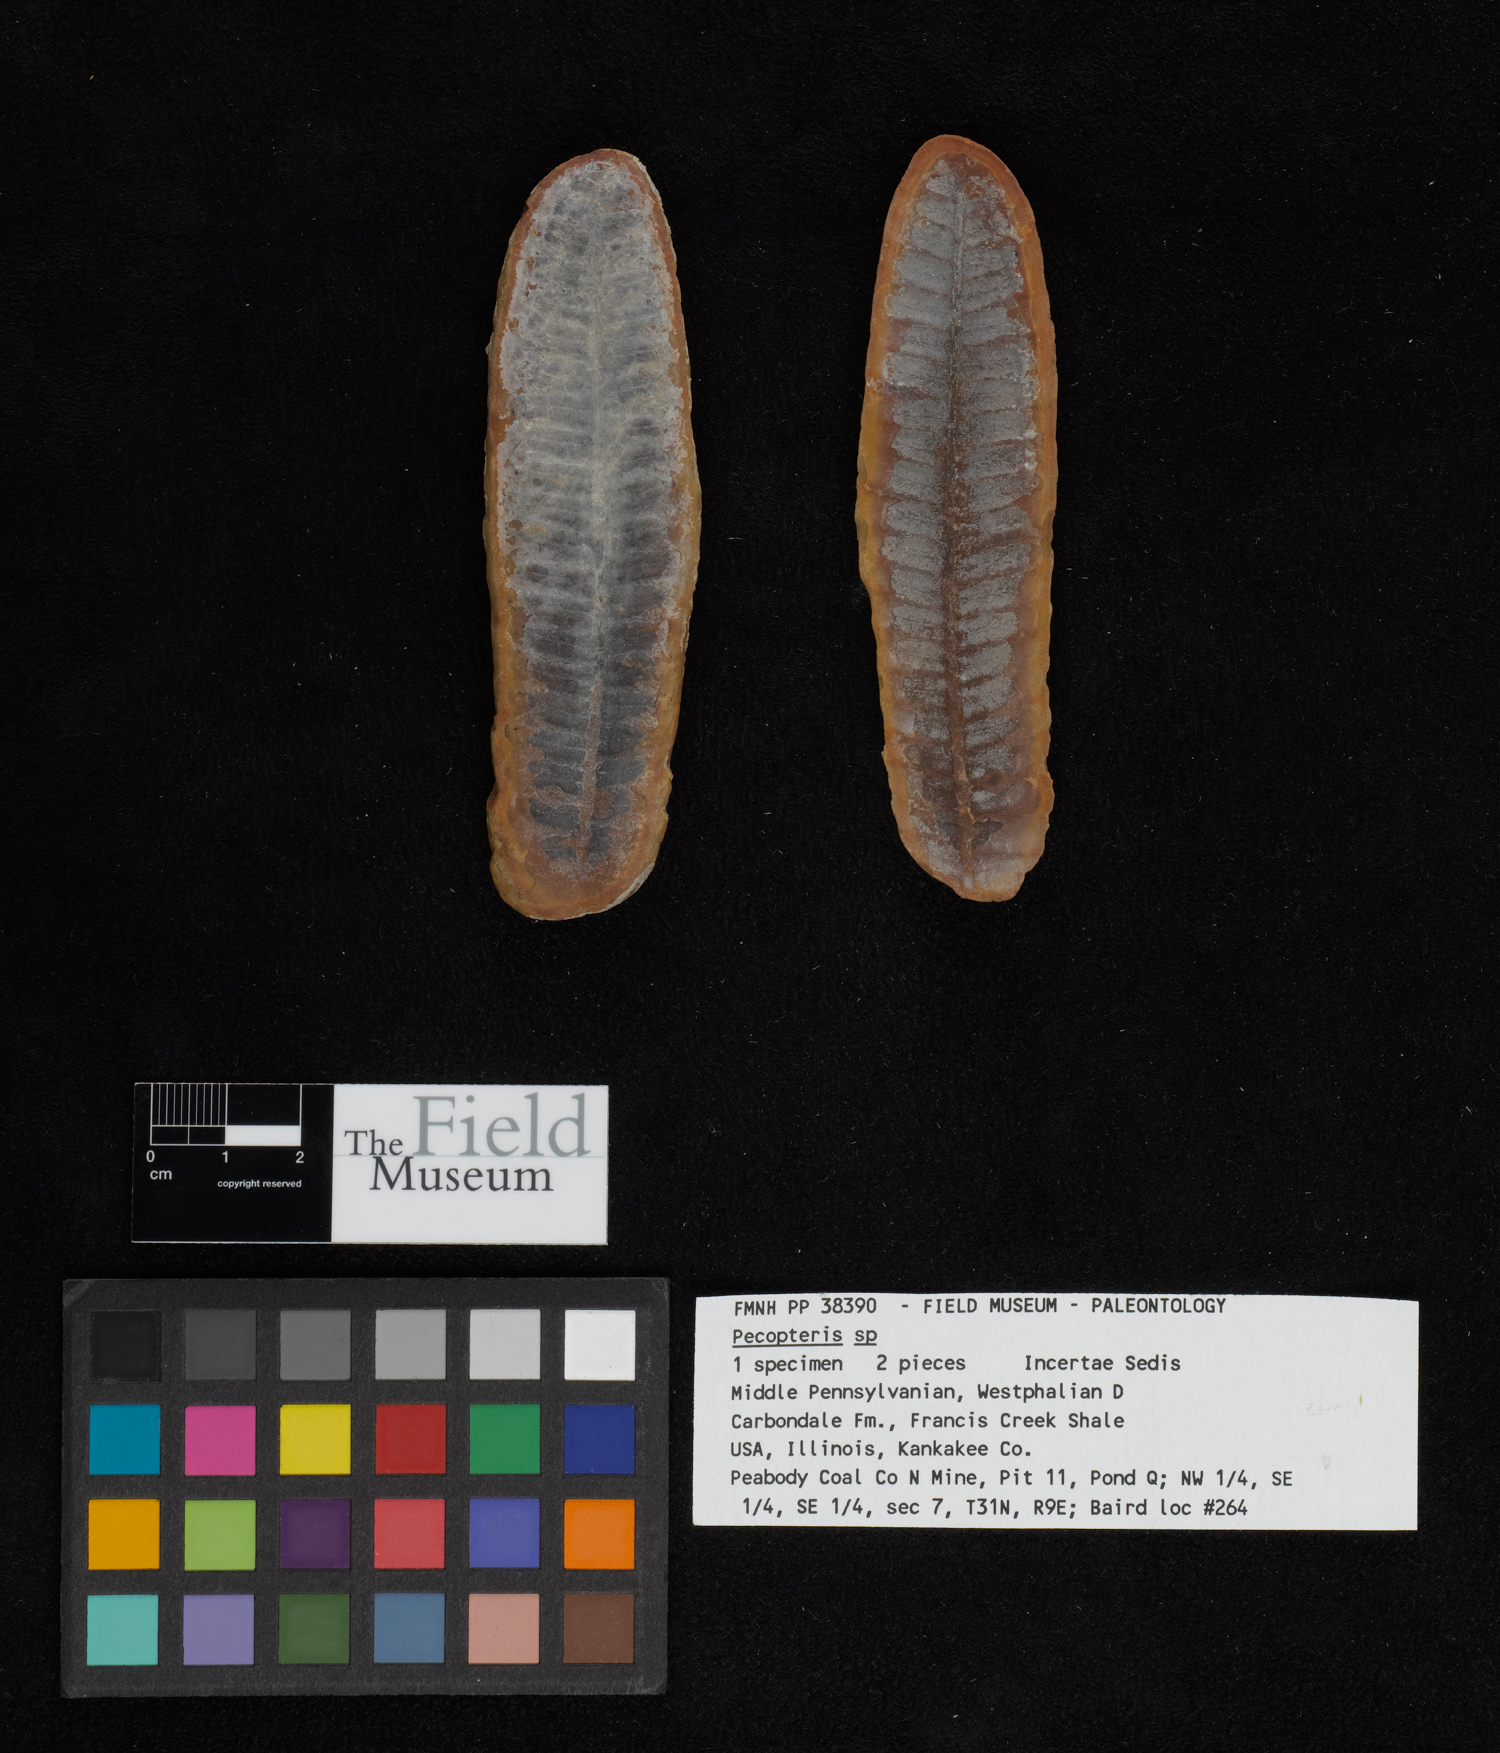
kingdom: Plantae
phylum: Tracheophyta
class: Polypodiopsida
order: Marattiales
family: Asterothecaceae
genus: Pecopteris
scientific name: Pecopteris
